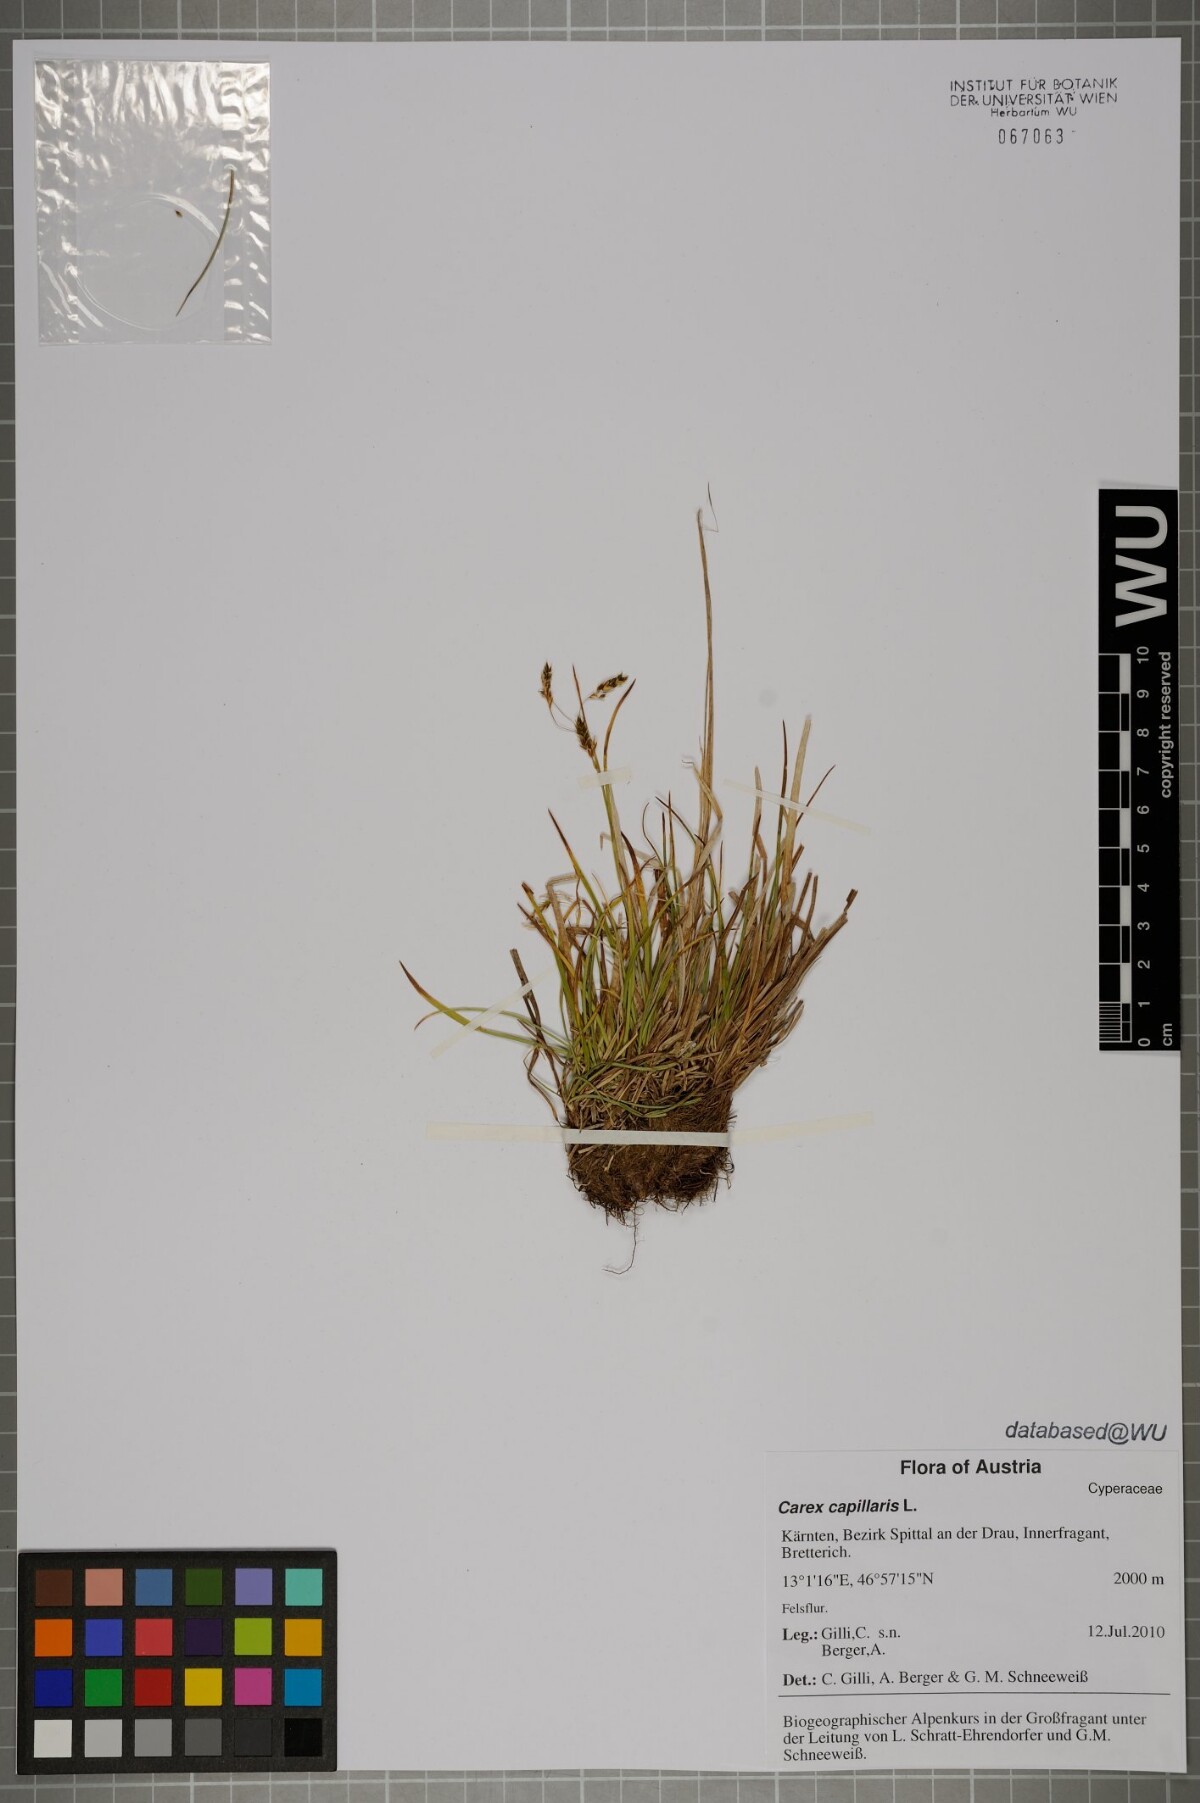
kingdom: Plantae
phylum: Tracheophyta
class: Liliopsida
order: Poales
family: Cyperaceae
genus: Carex
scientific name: Carex capillaris
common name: Hair sedge
